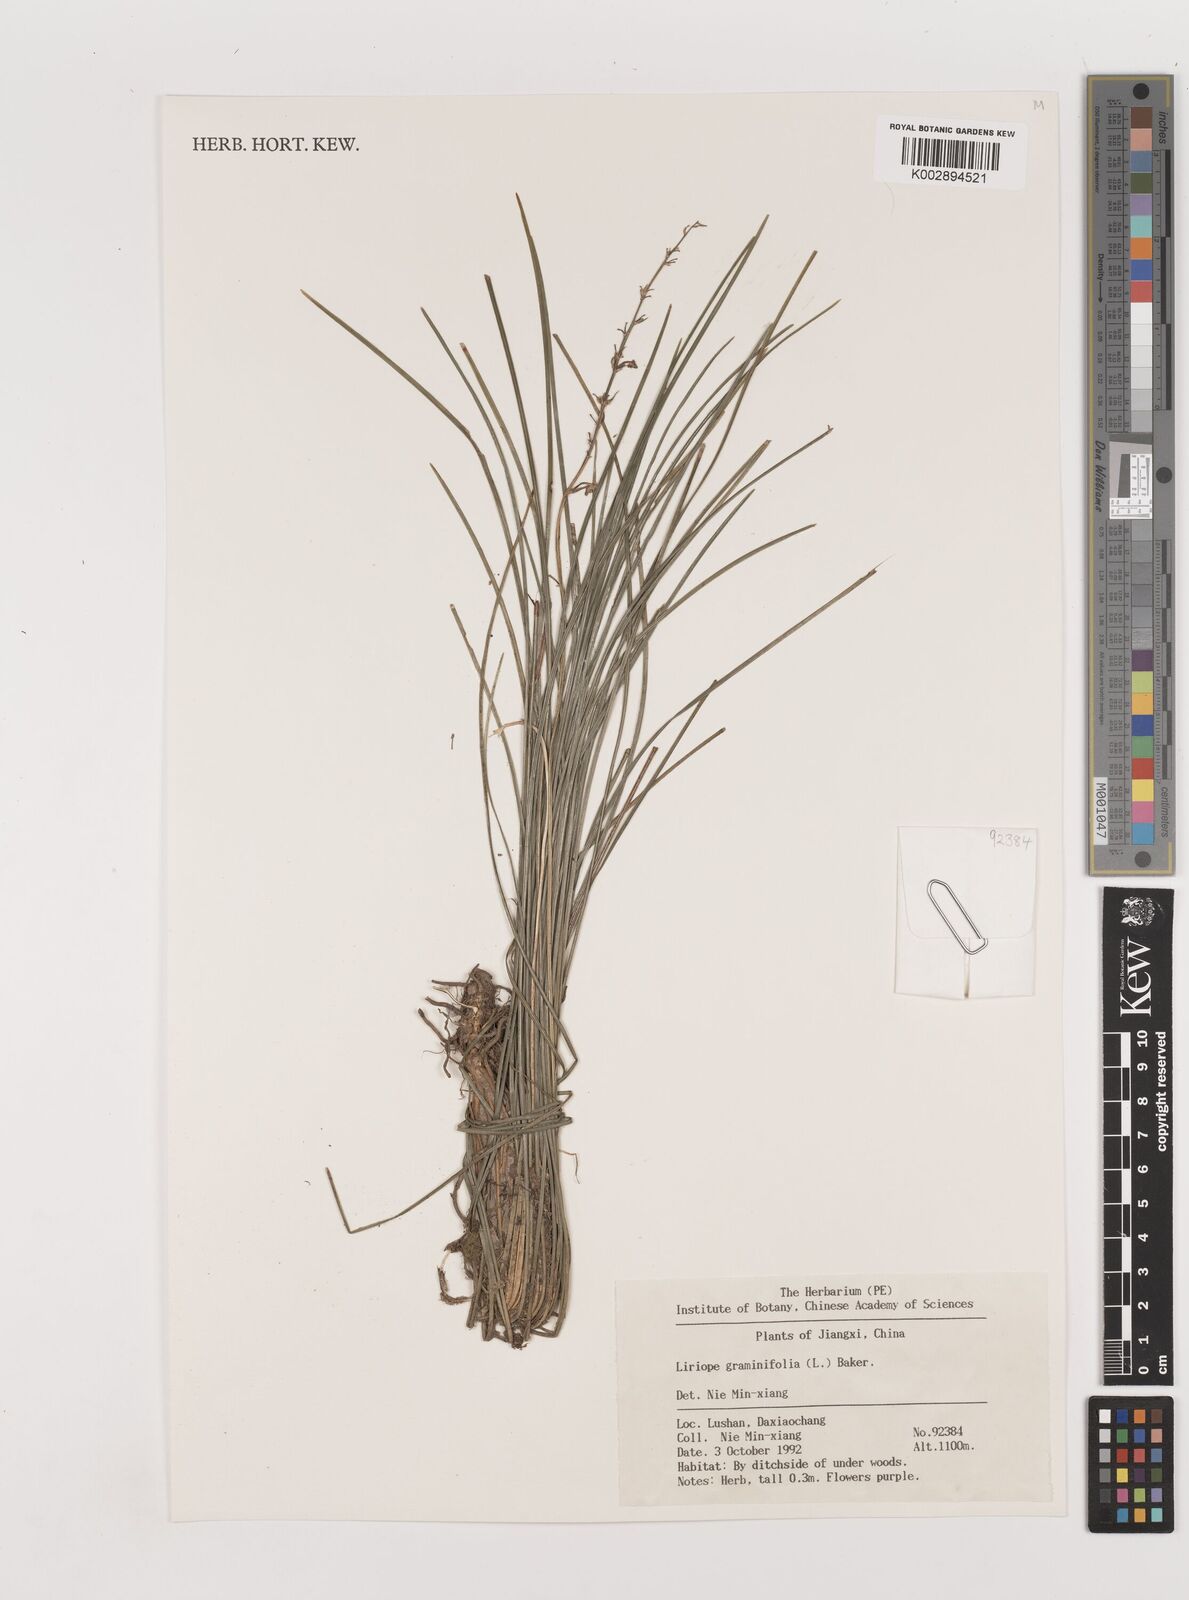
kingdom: Plantae
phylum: Tracheophyta
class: Liliopsida
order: Asparagales
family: Asparagaceae
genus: Liriope
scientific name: Liriope spicata
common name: Creeping liriope
